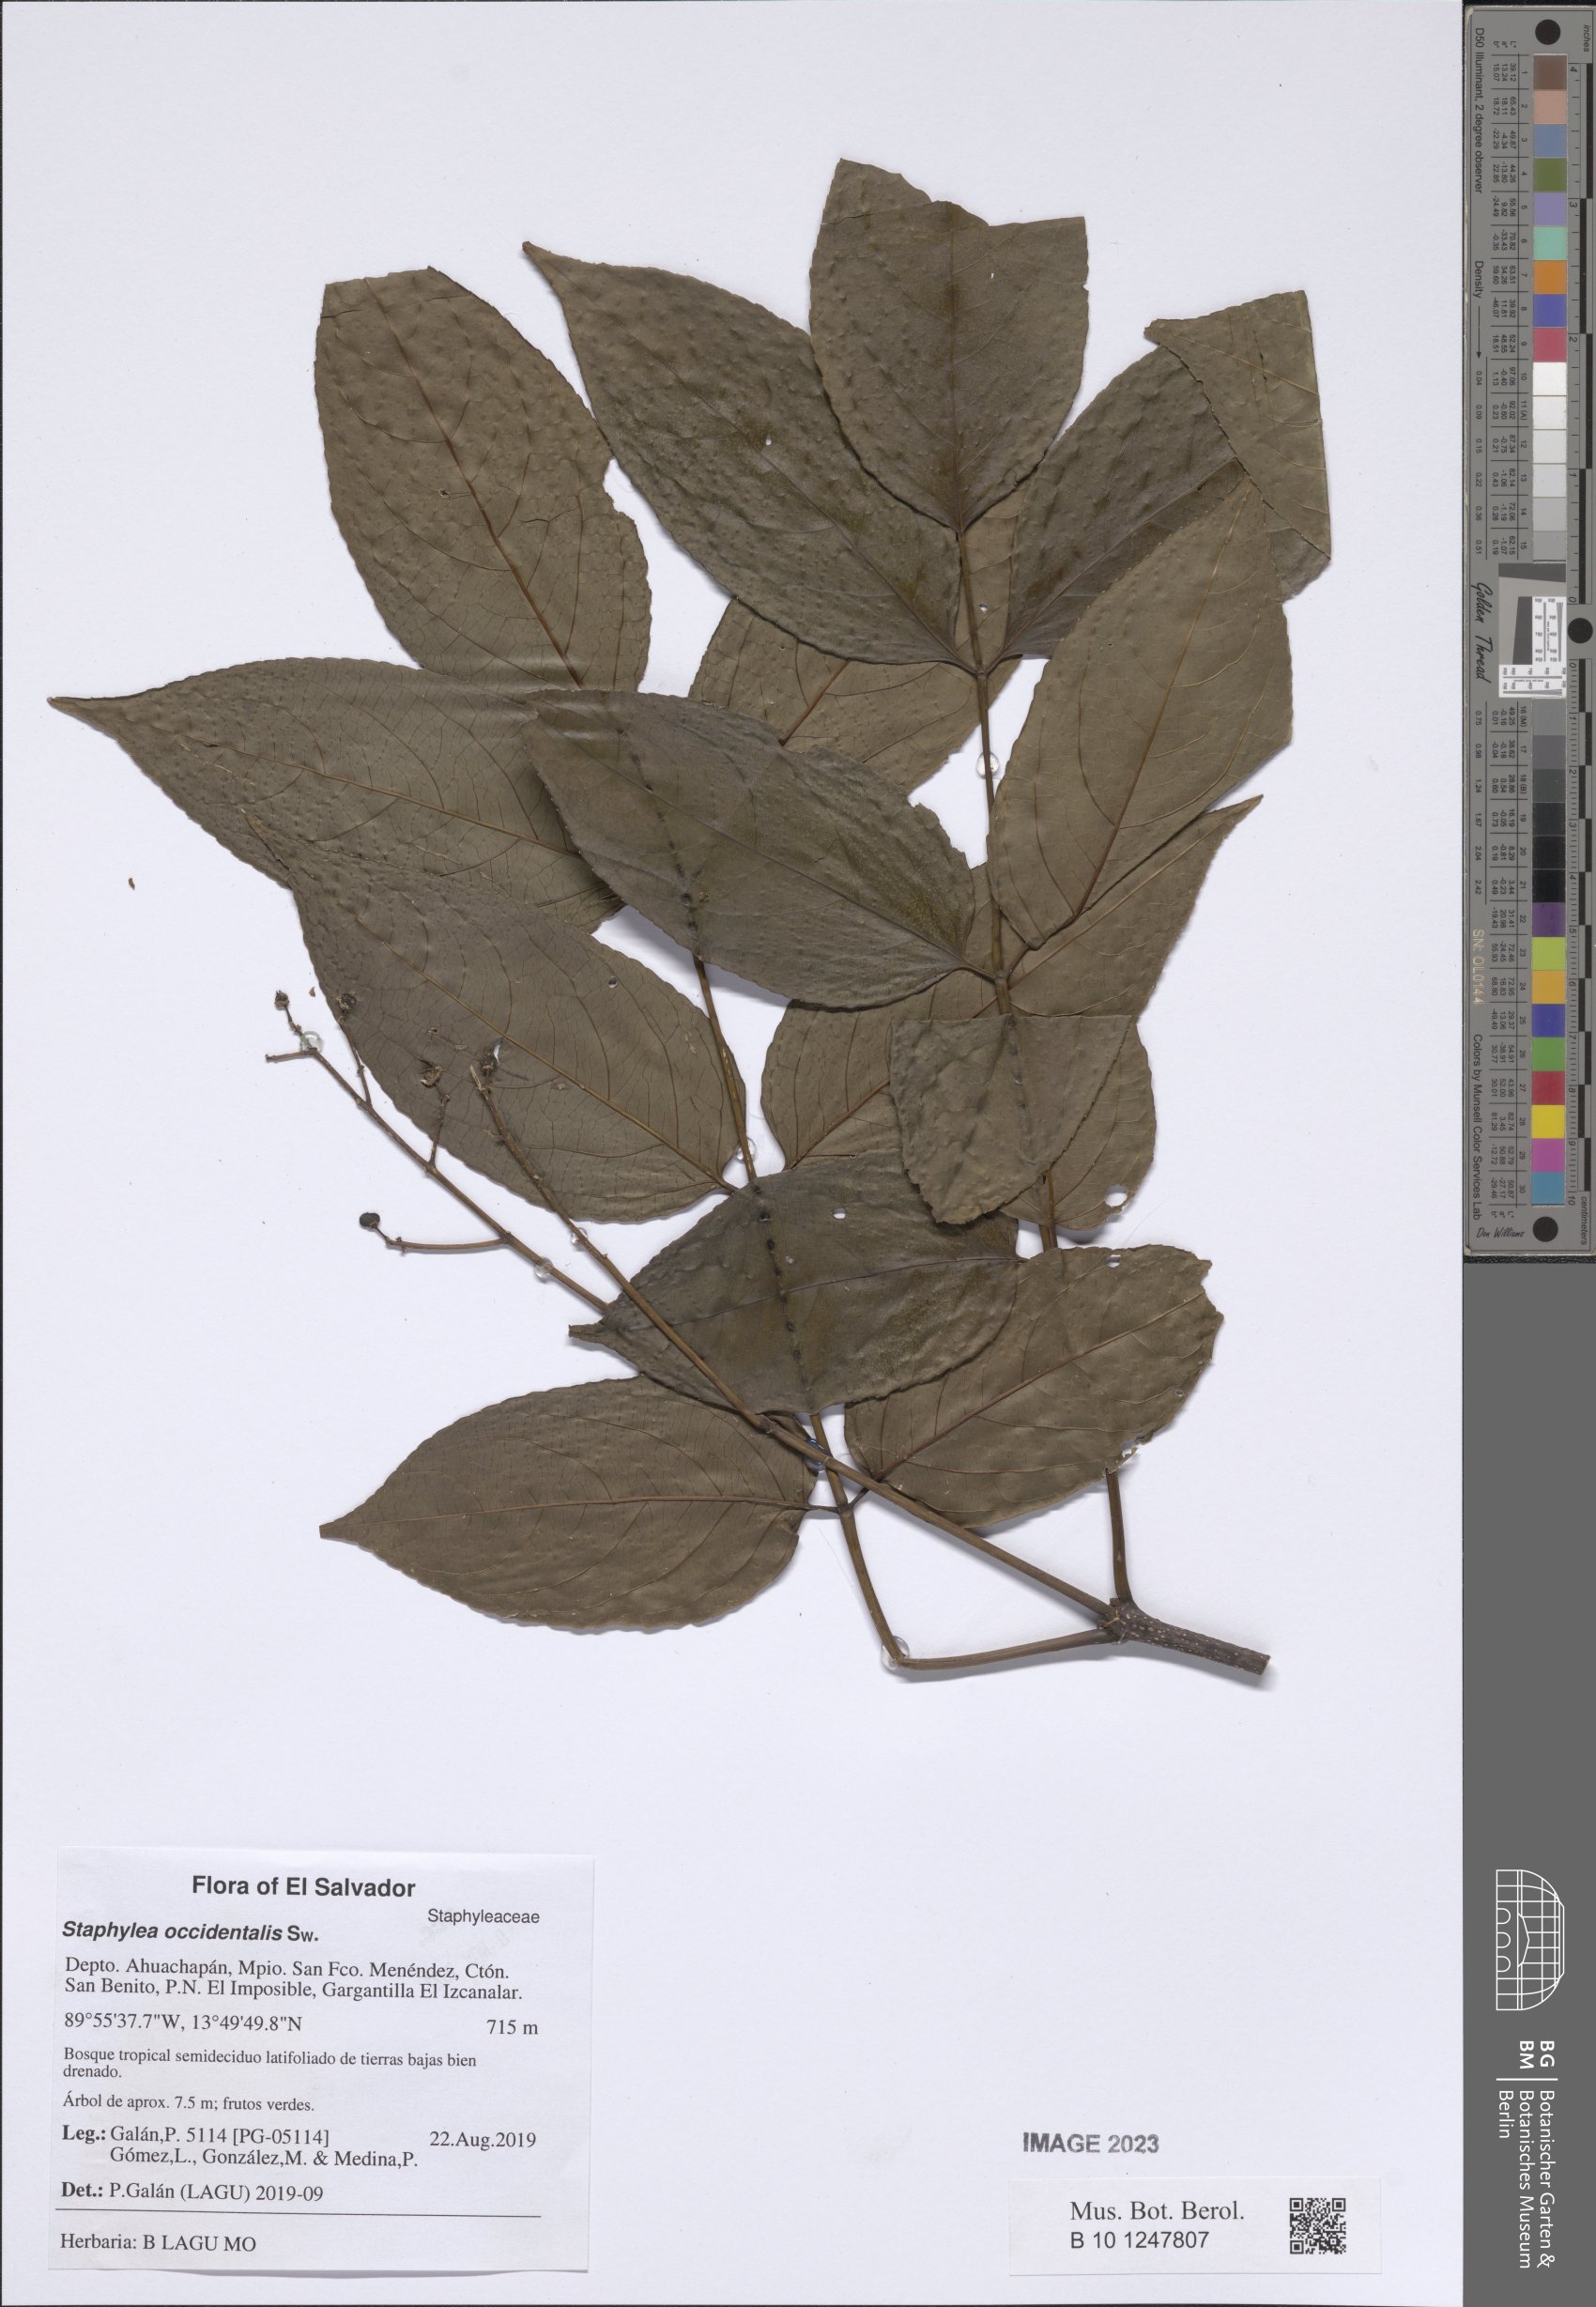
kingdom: Plantae
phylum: Tracheophyta
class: Magnoliopsida
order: Crossosomatales
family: Staphyleaceae
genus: Turpinia
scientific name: Turpinia occidentalis
